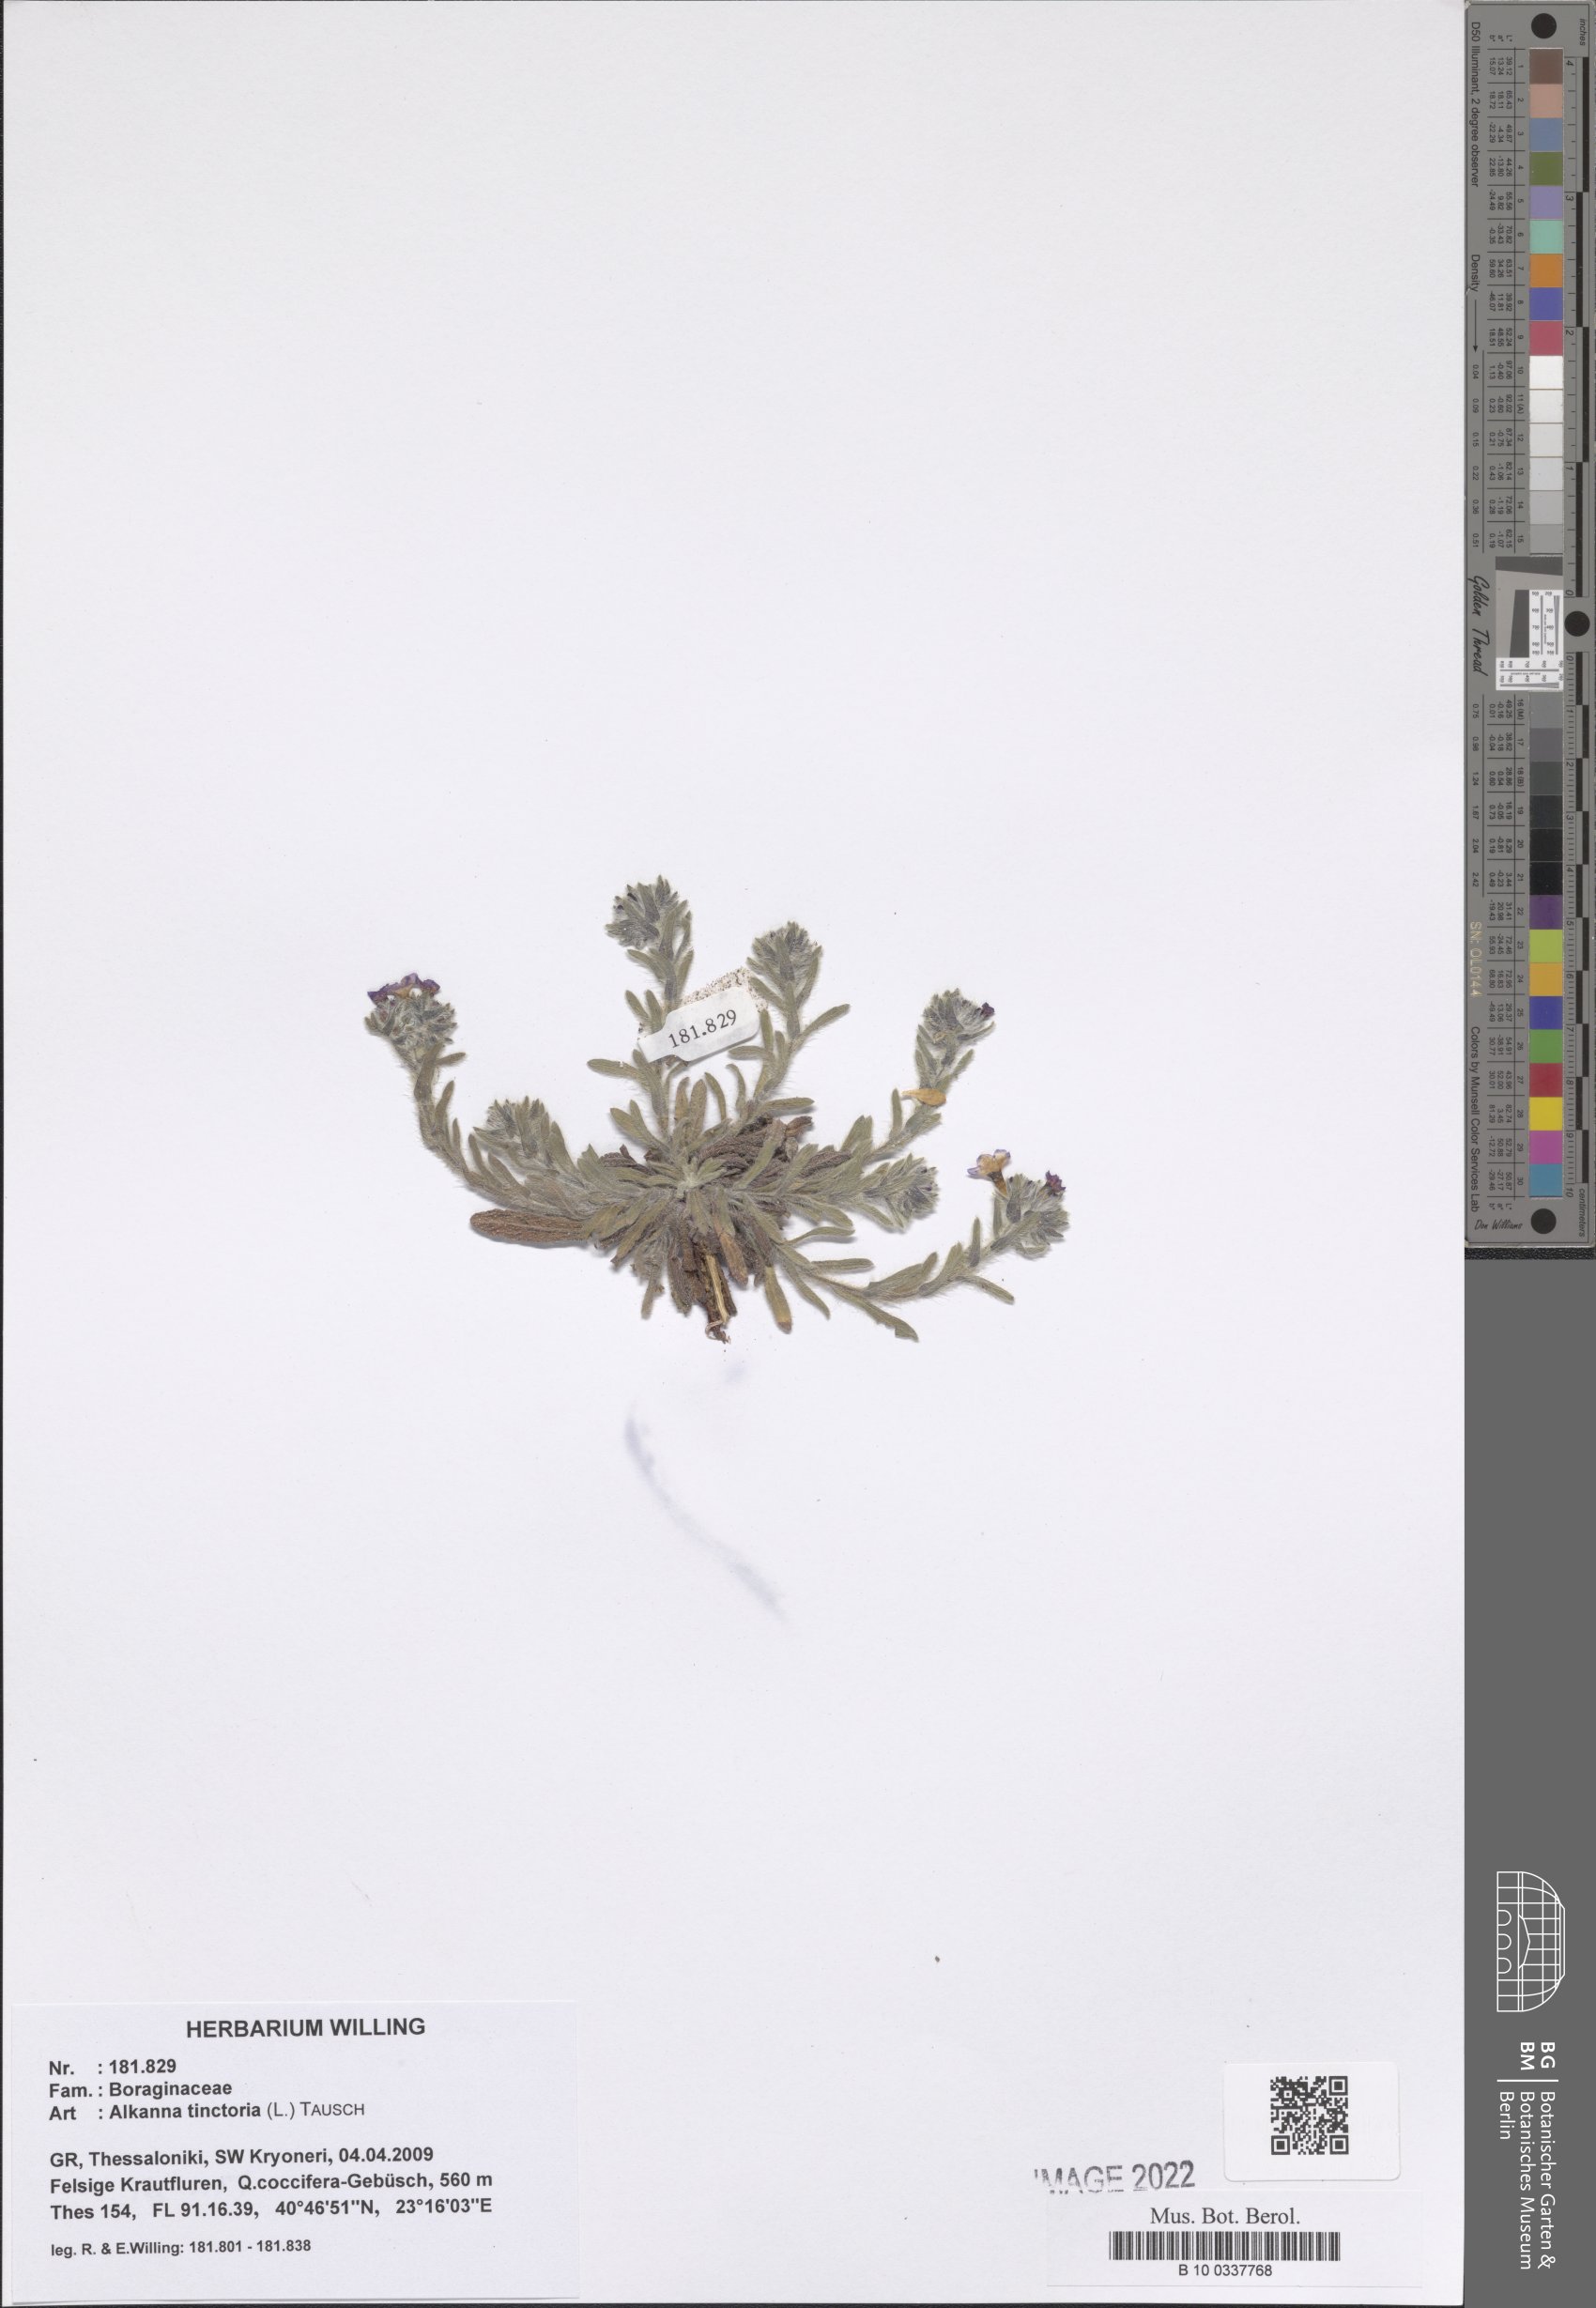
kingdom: Plantae
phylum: Tracheophyta
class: Magnoliopsida
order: Boraginales
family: Boraginaceae
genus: Alkanna
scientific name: Alkanna tinctoria
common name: Dyer's-alkanet
